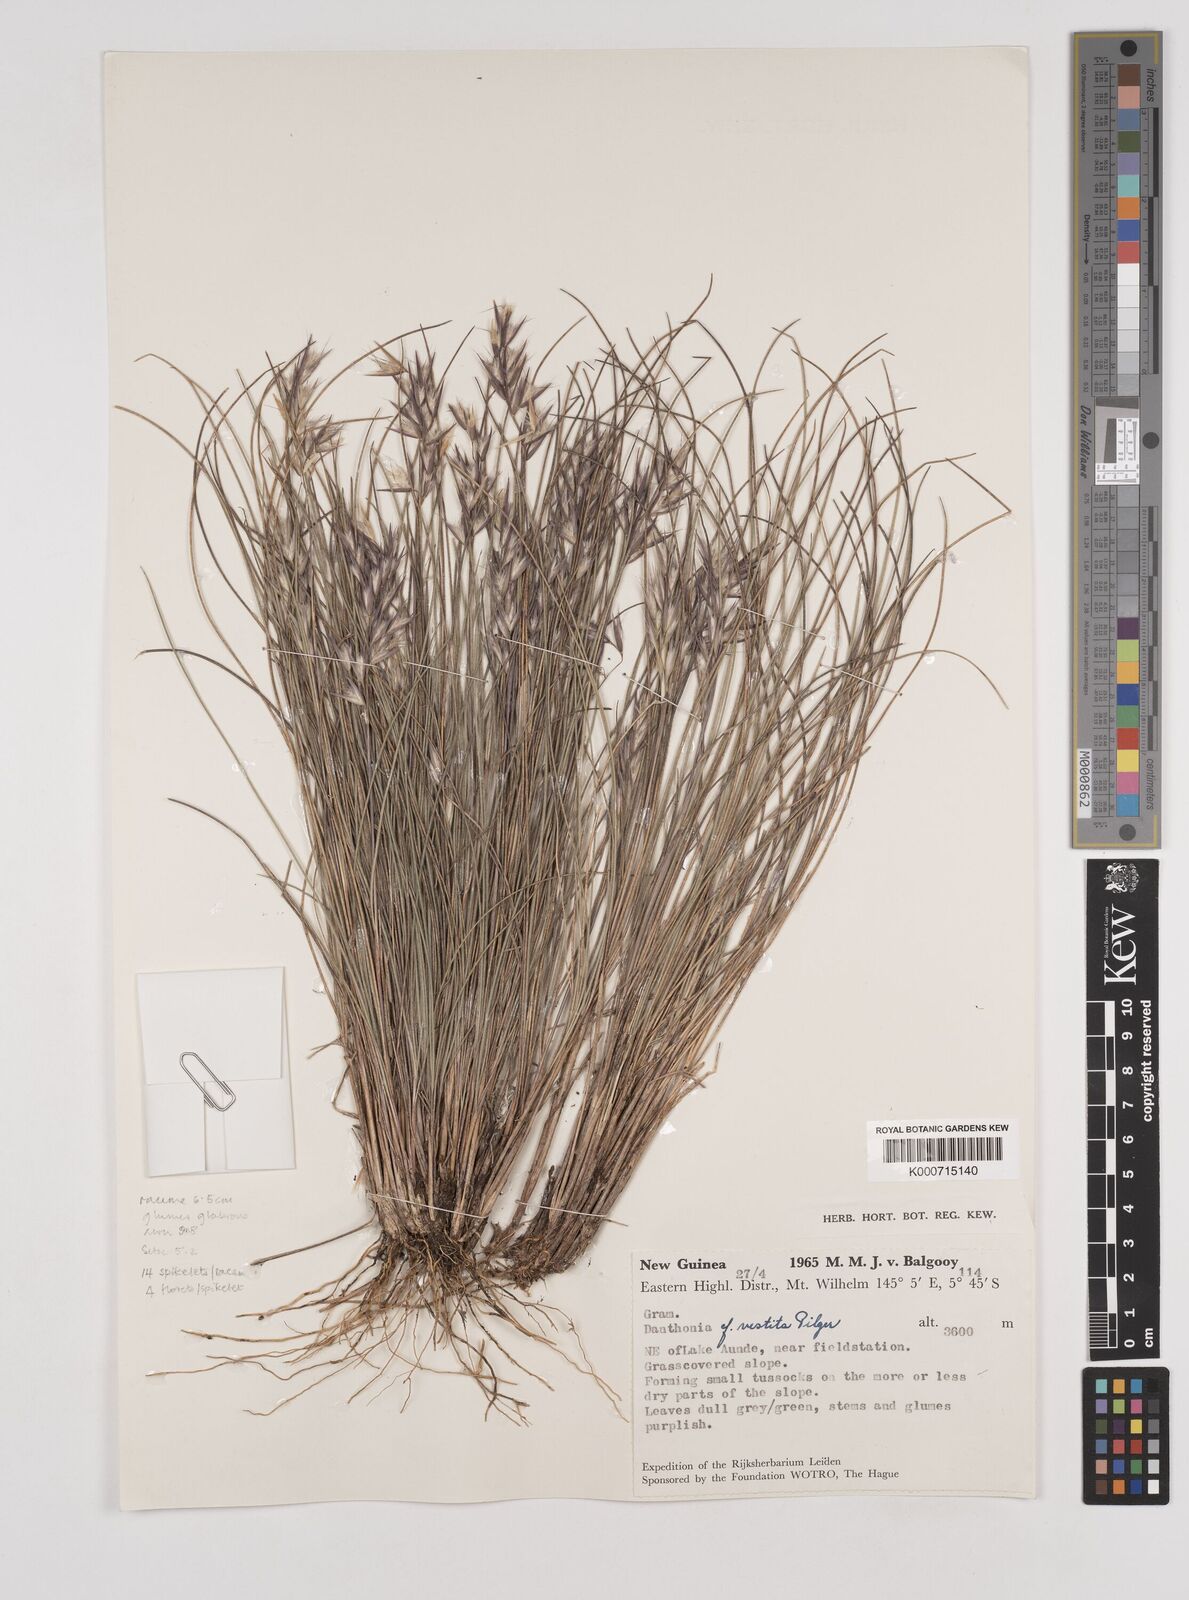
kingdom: Plantae
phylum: Tracheophyta
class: Liliopsida
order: Poales
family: Poaceae
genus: Rytidosperma
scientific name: Rytidosperma vestitum
